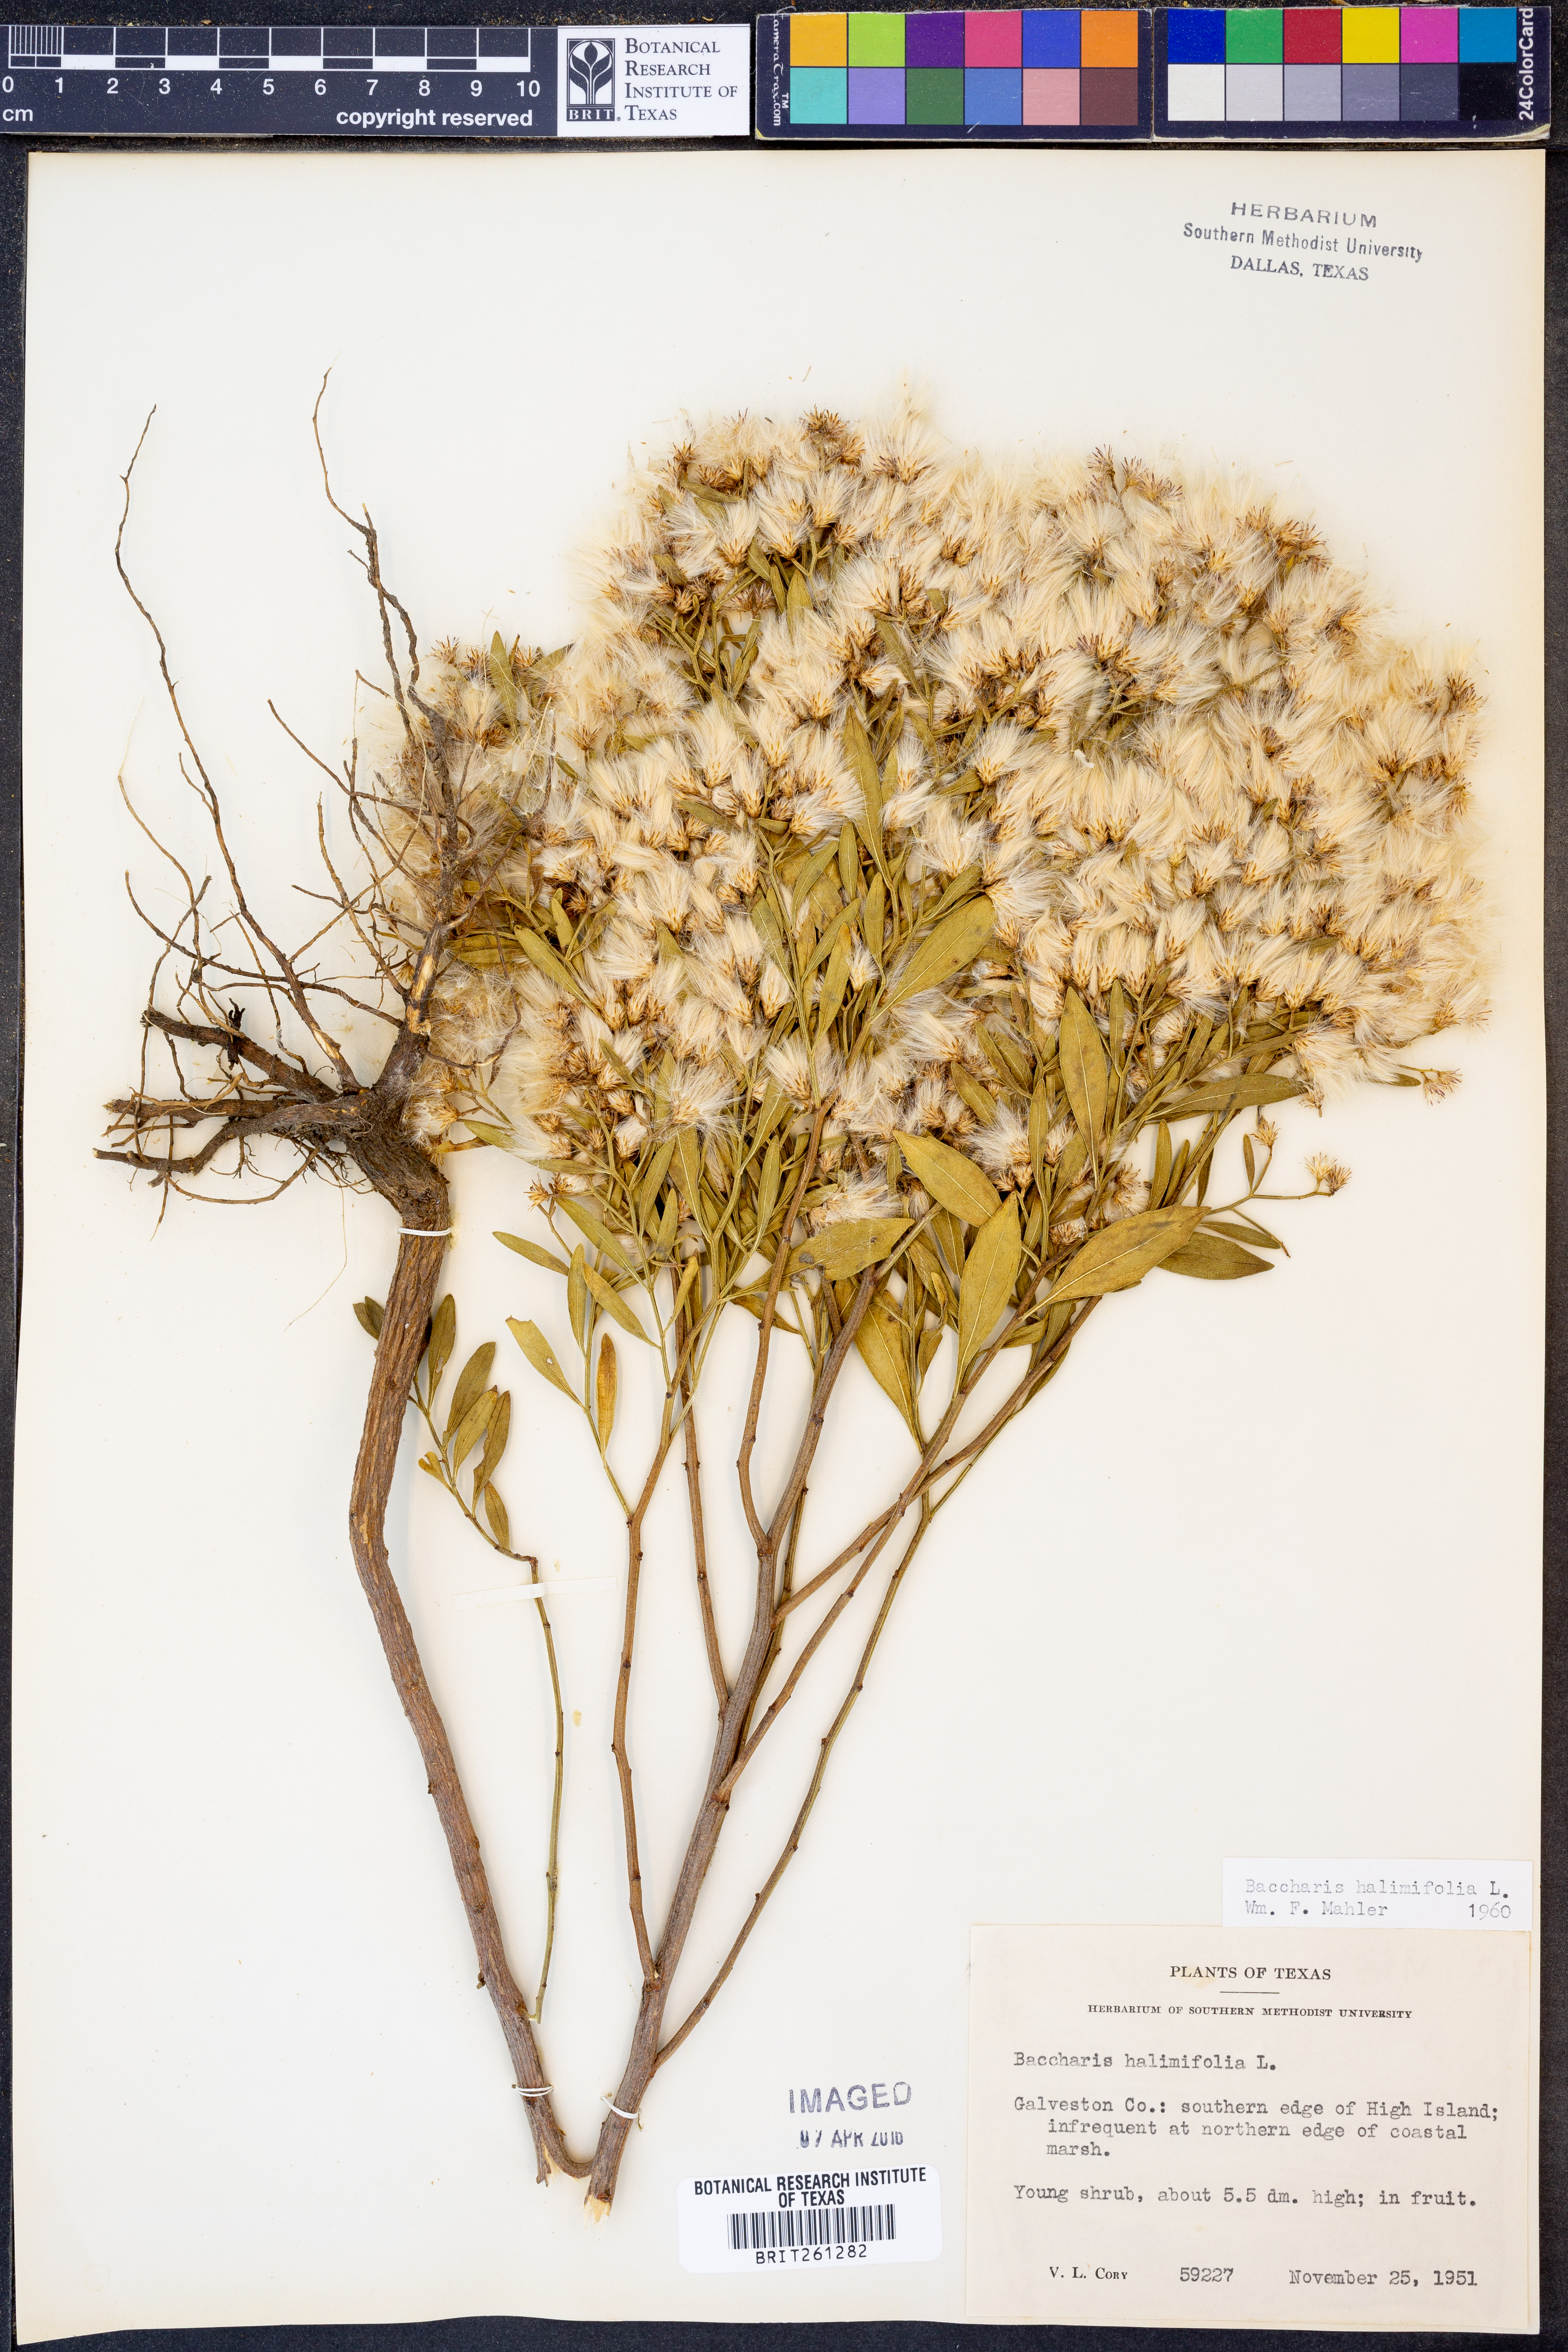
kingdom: Plantae
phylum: Tracheophyta
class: Magnoliopsida
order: Asterales
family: Asteraceae
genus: Nidorella
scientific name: Nidorella ivifolia
